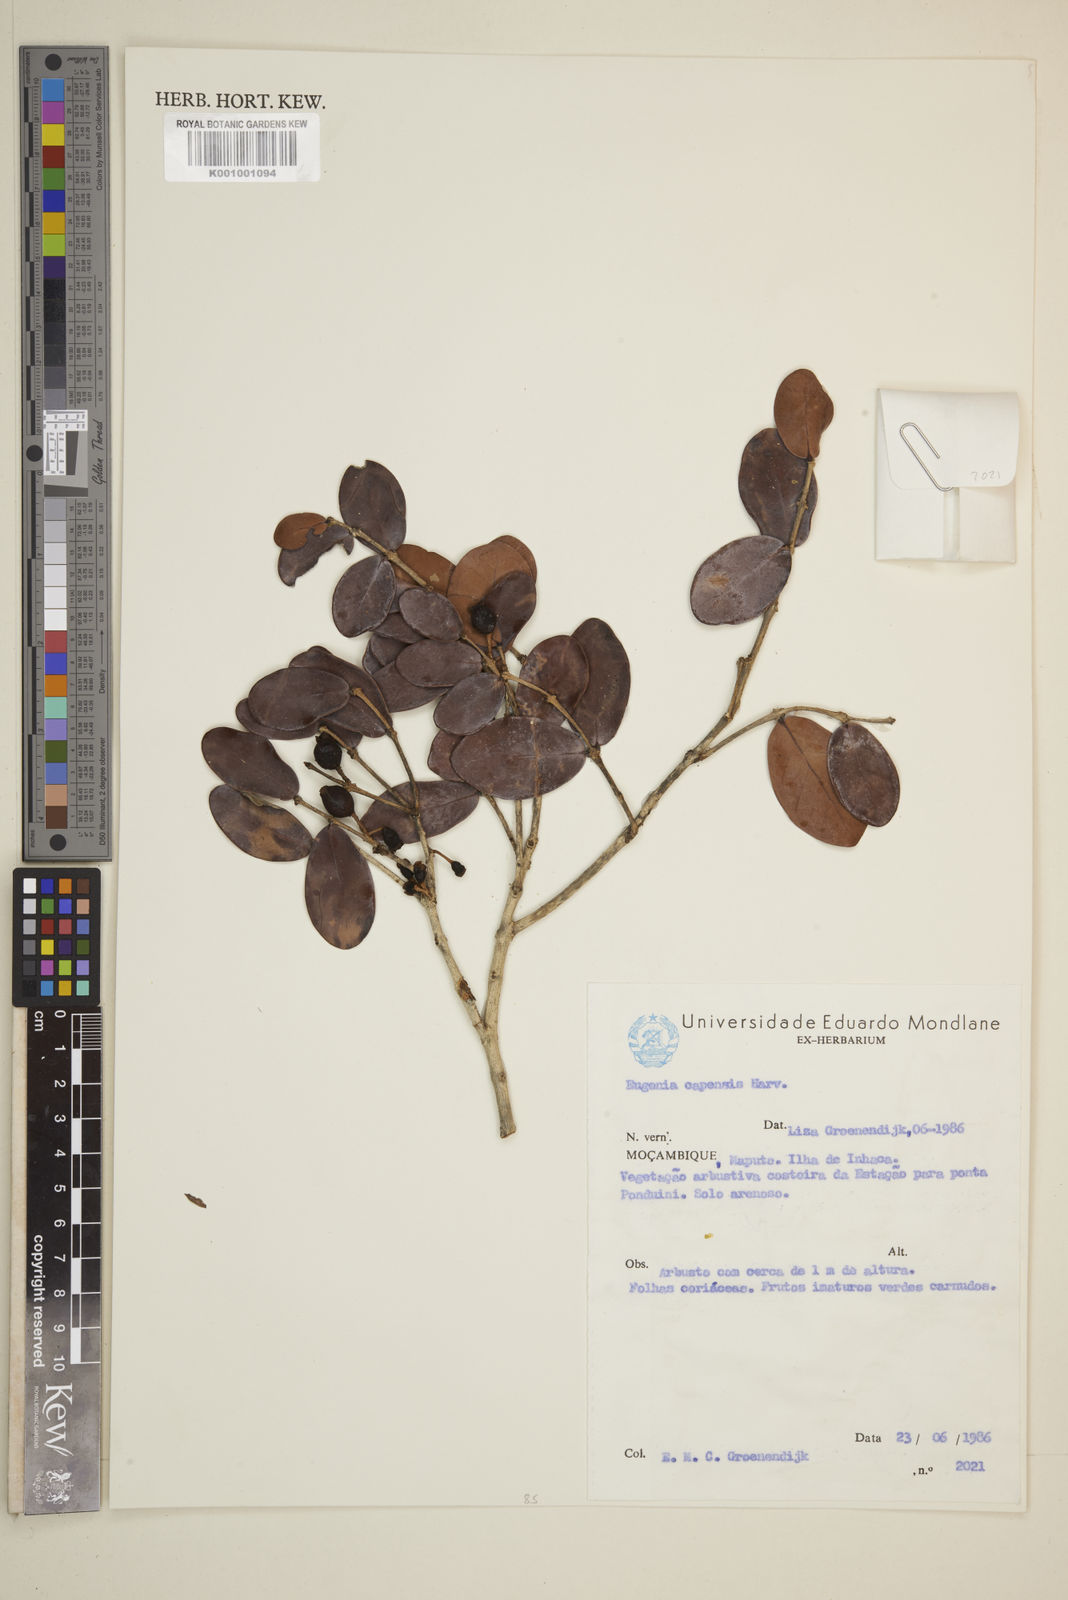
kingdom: Plantae
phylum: Tracheophyta
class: Magnoliopsida
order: Myrtales
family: Myrtaceae
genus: Eugenia
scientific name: Eugenia capensis
